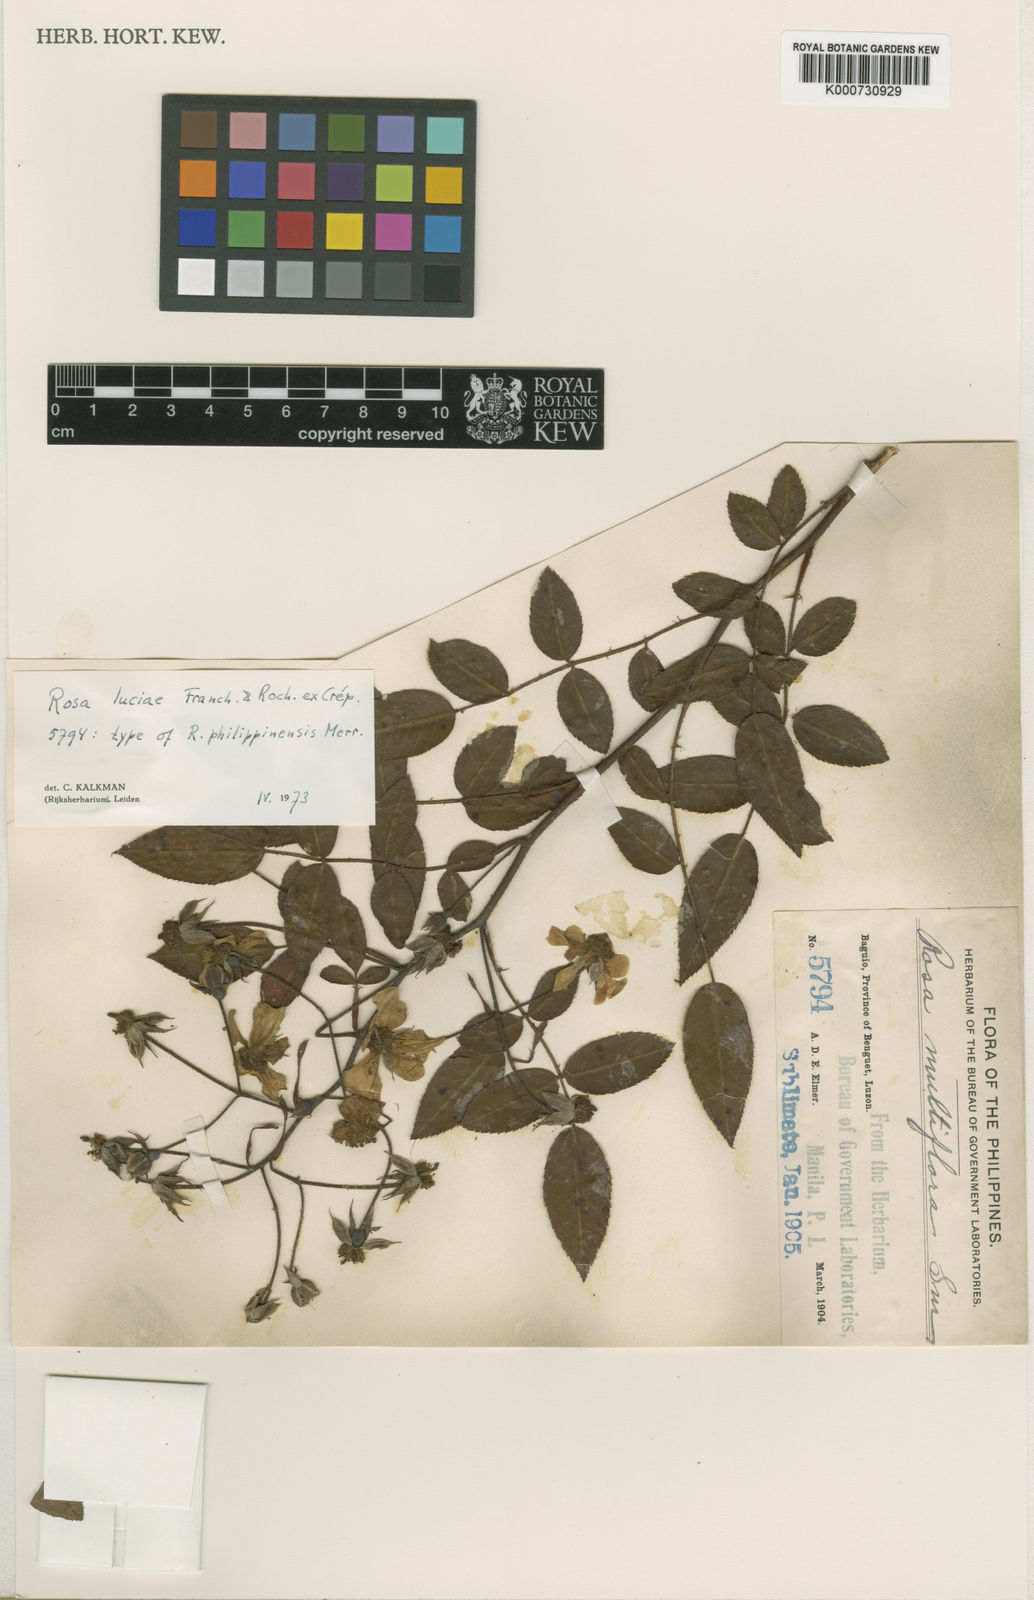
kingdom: Plantae
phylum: Tracheophyta
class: Magnoliopsida
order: Rosales
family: Rosaceae
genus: Rosa
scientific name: Rosa
